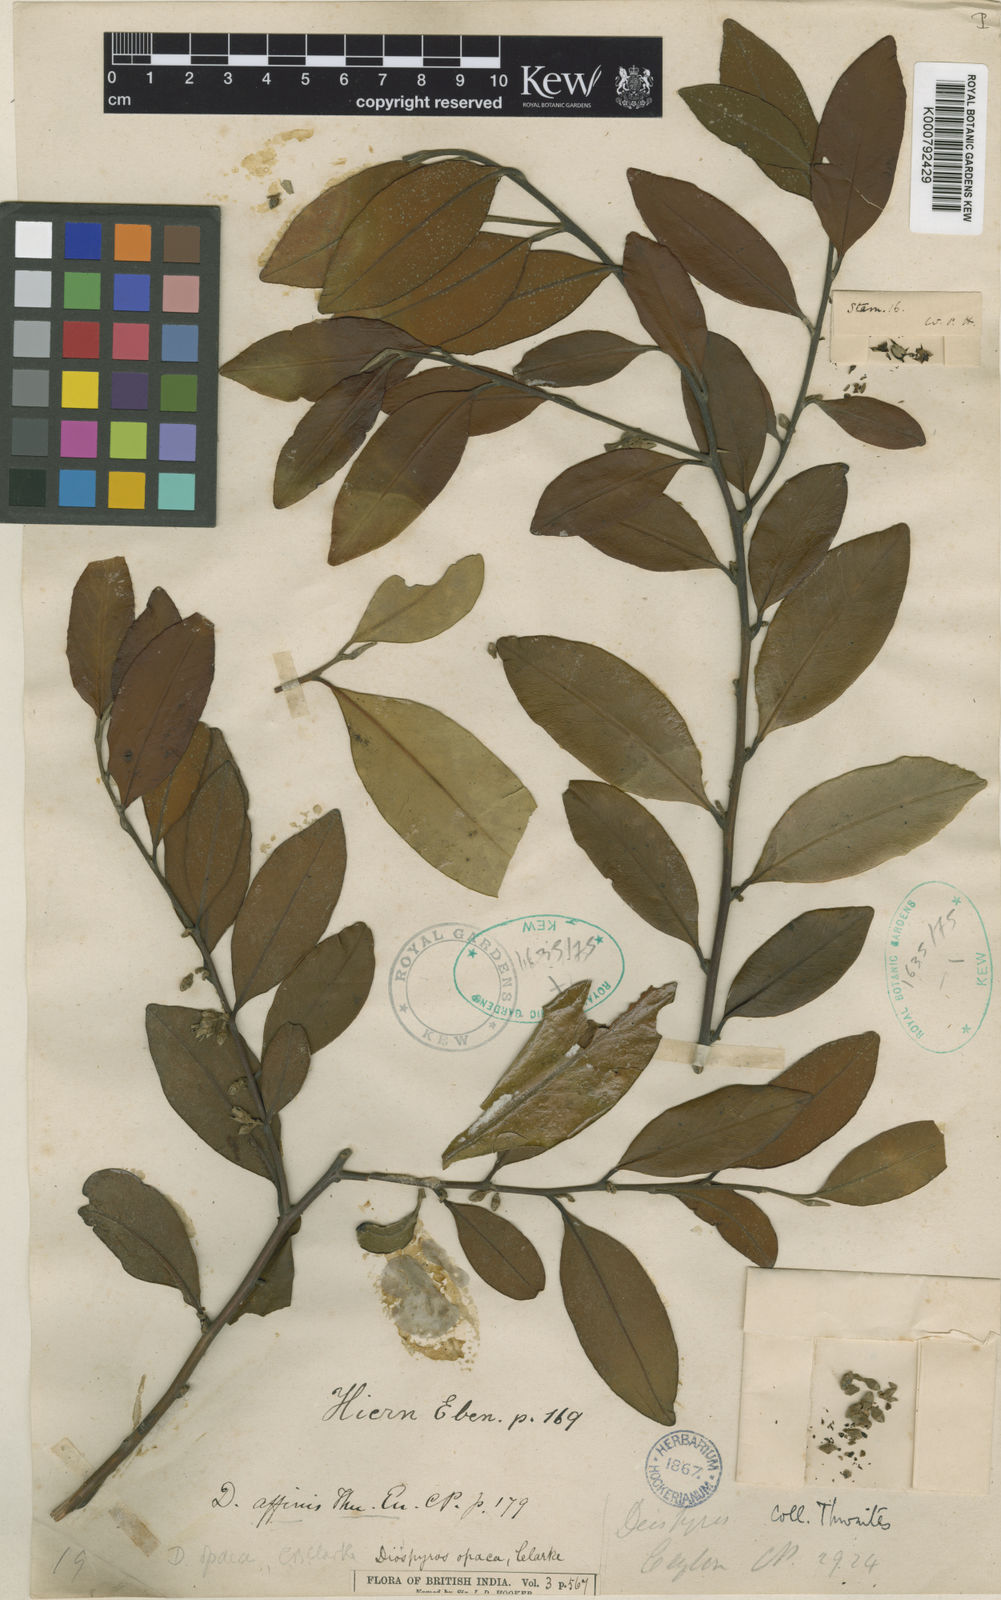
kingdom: Plantae
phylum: Tracheophyta
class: Magnoliopsida
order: Ericales
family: Ebenaceae
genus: Diospyros
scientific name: Diospyros opaca
